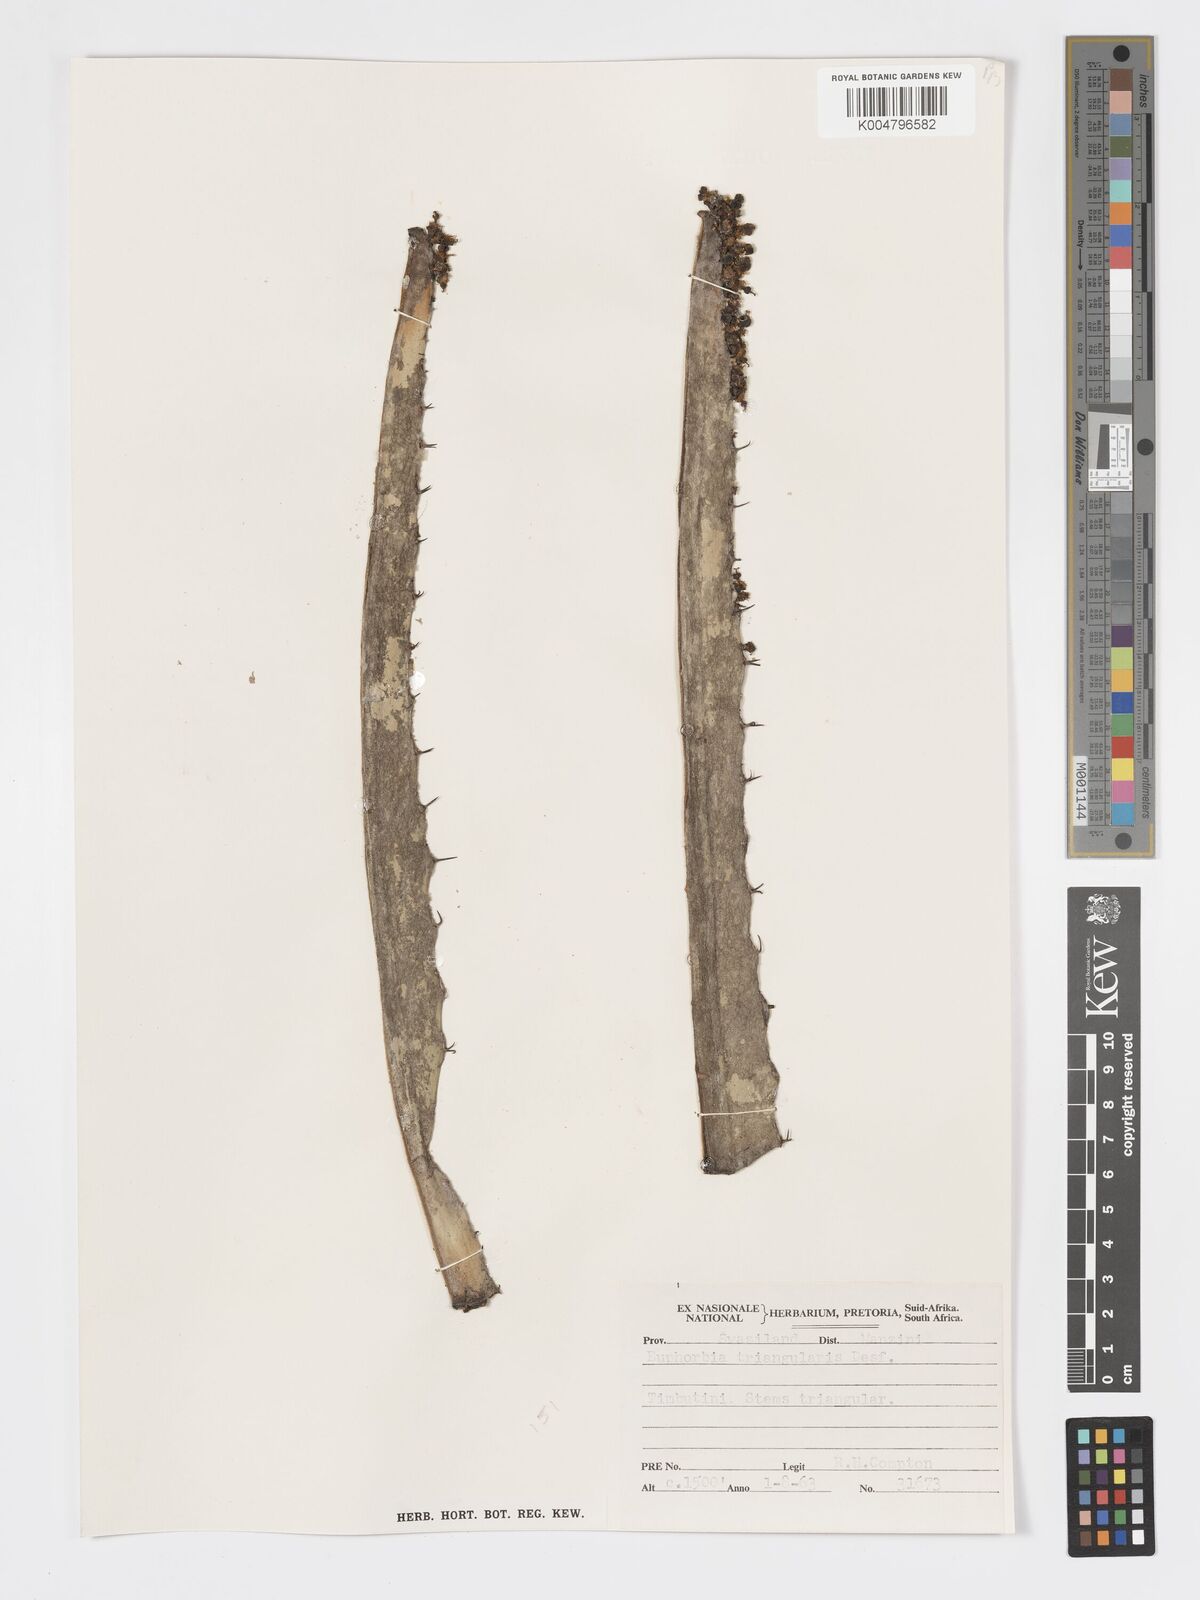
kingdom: Plantae
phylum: Tracheophyta
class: Magnoliopsida
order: Malpighiales
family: Euphorbiaceae
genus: Euphorbia
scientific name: Euphorbia triangularis
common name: Chandelier tree
